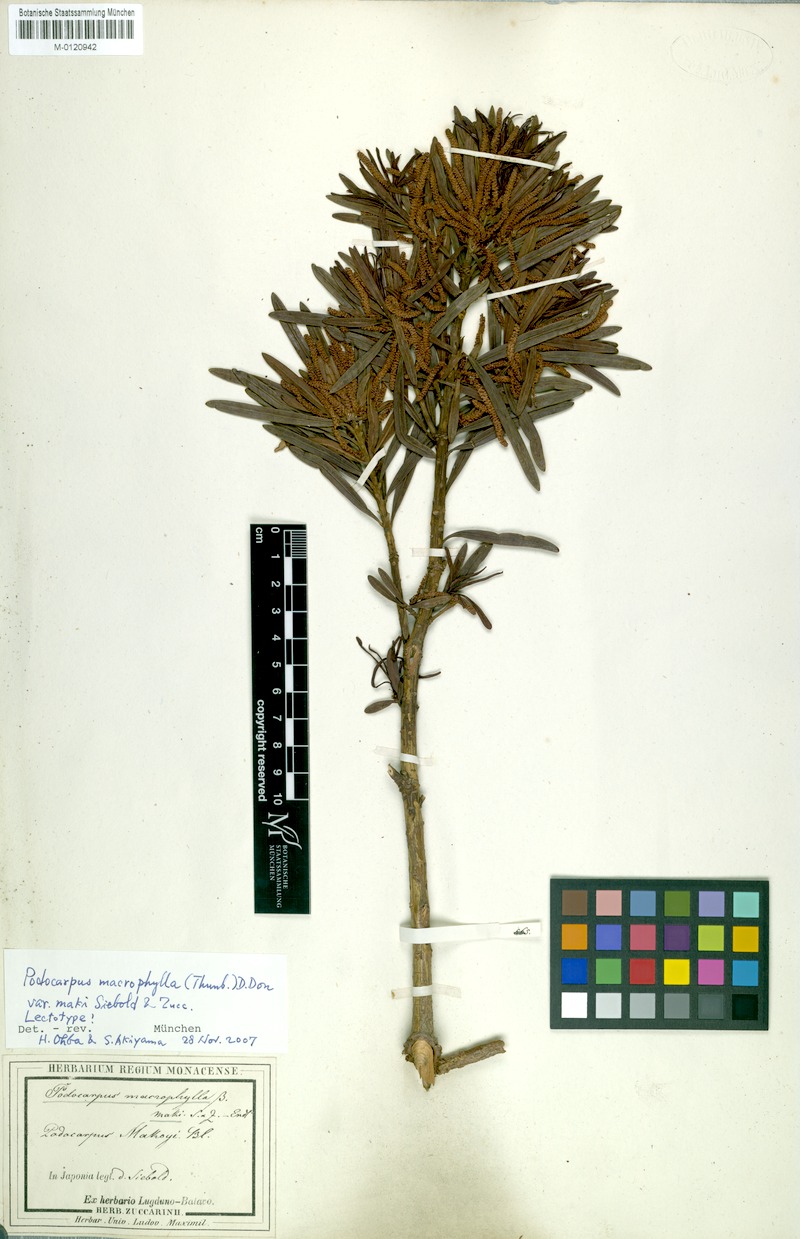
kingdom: Plantae
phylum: Tracheophyta
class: Pinopsida
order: Pinales
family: Podocarpaceae
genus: Podocarpus
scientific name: Podocarpus macrophyllus
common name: Japanese yew
